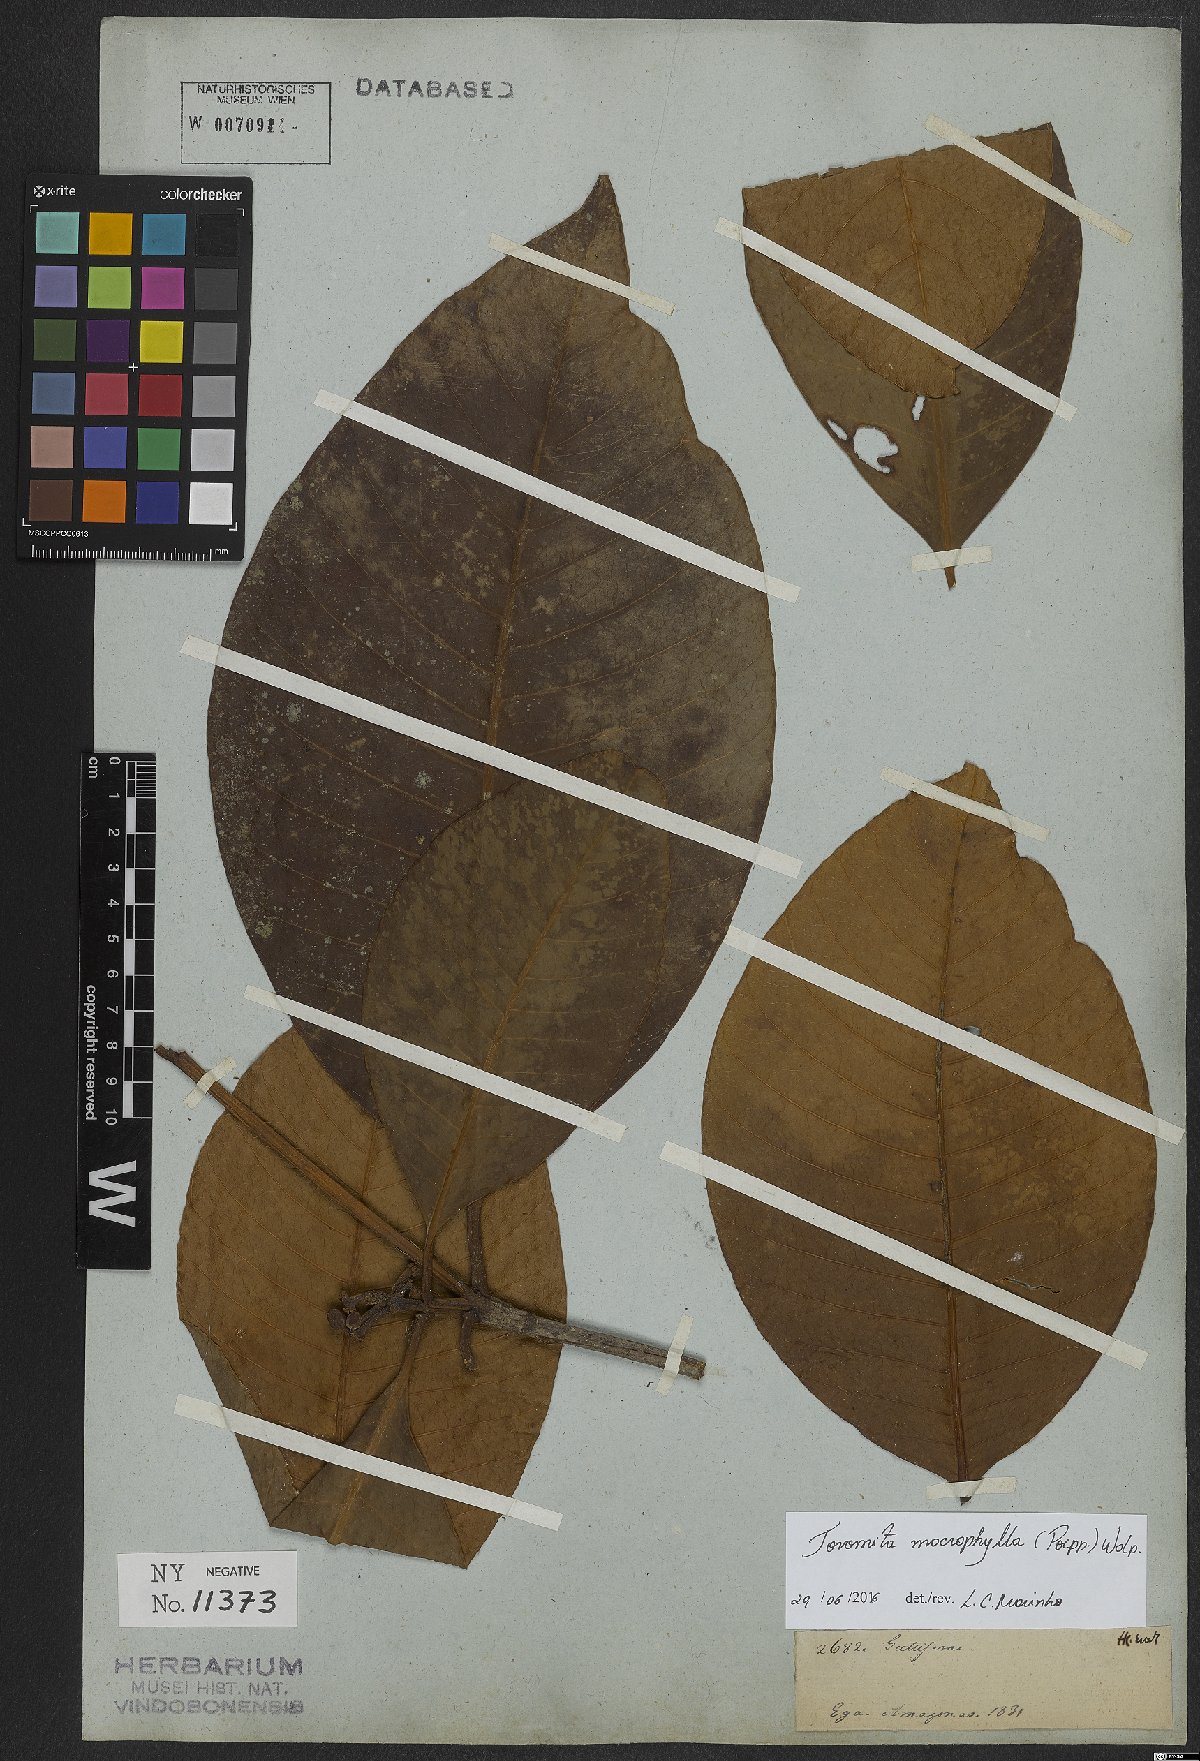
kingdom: Plantae
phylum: Tracheophyta
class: Magnoliopsida
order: Malpighiales
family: Clusiaceae
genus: Tovomita
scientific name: Tovomita macrophylla
